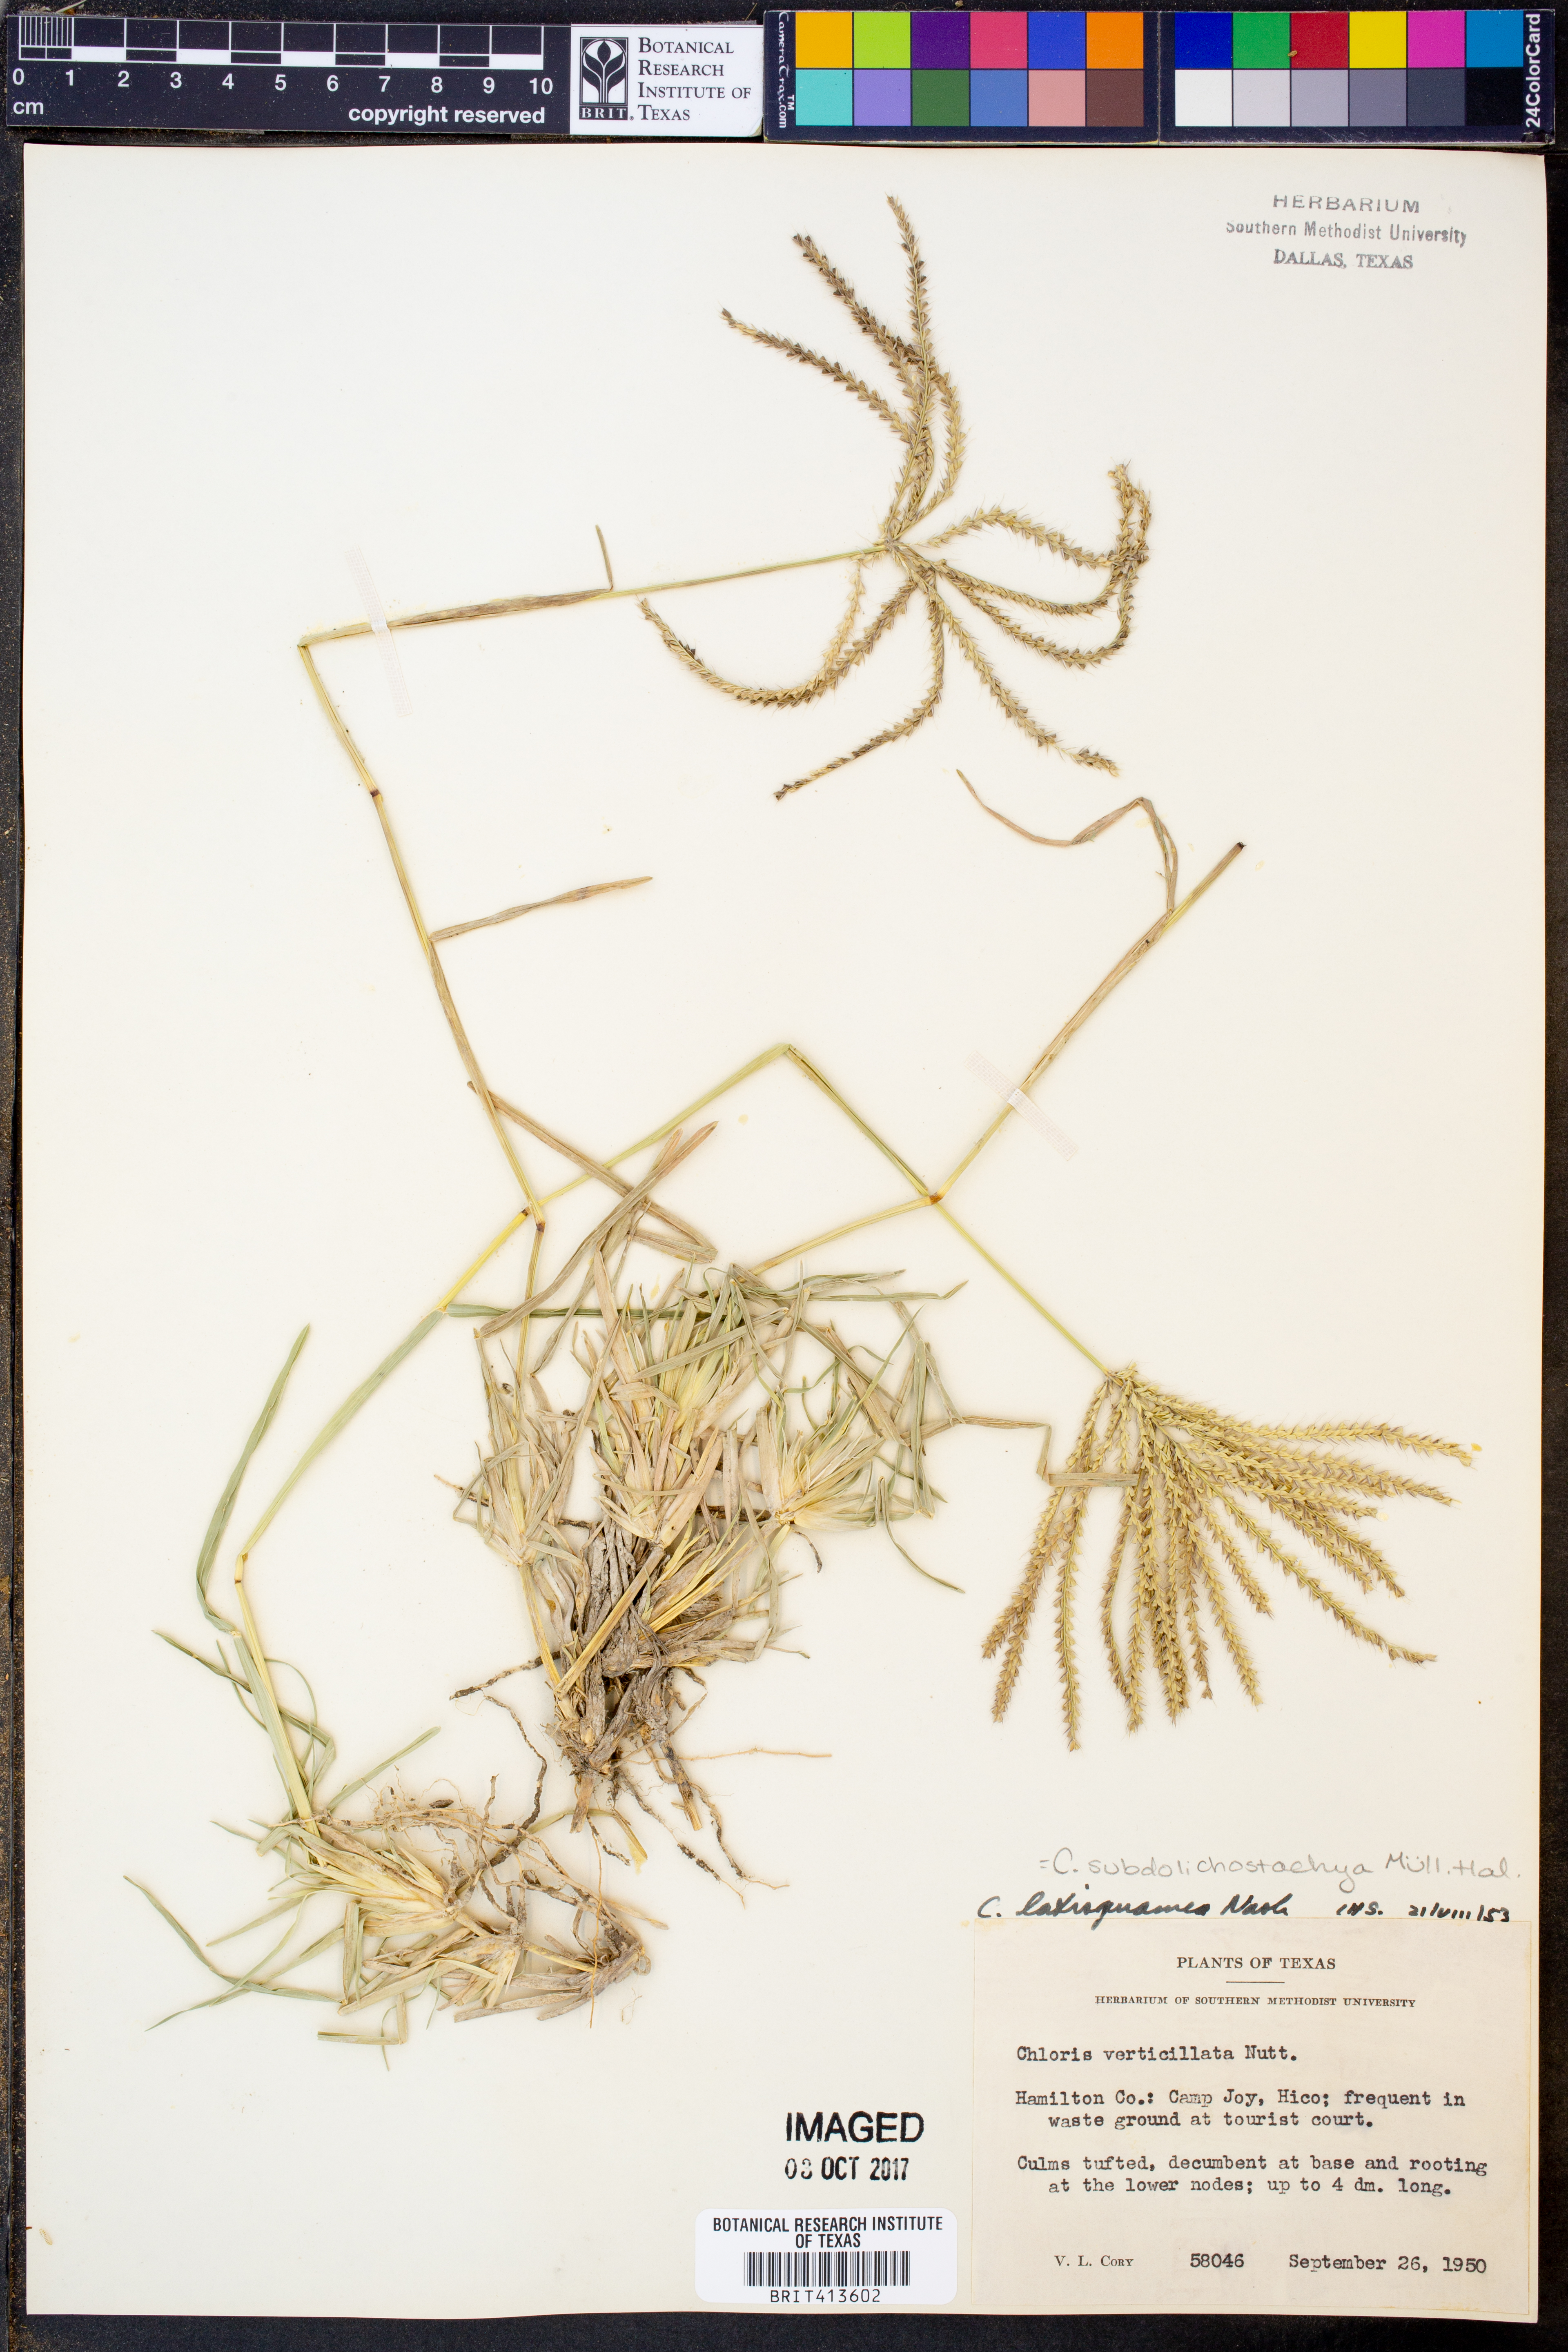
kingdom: Plantae
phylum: Tracheophyta
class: Liliopsida
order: Poales
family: Poaceae
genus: Chloris
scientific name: Chloris subdolichostachya
